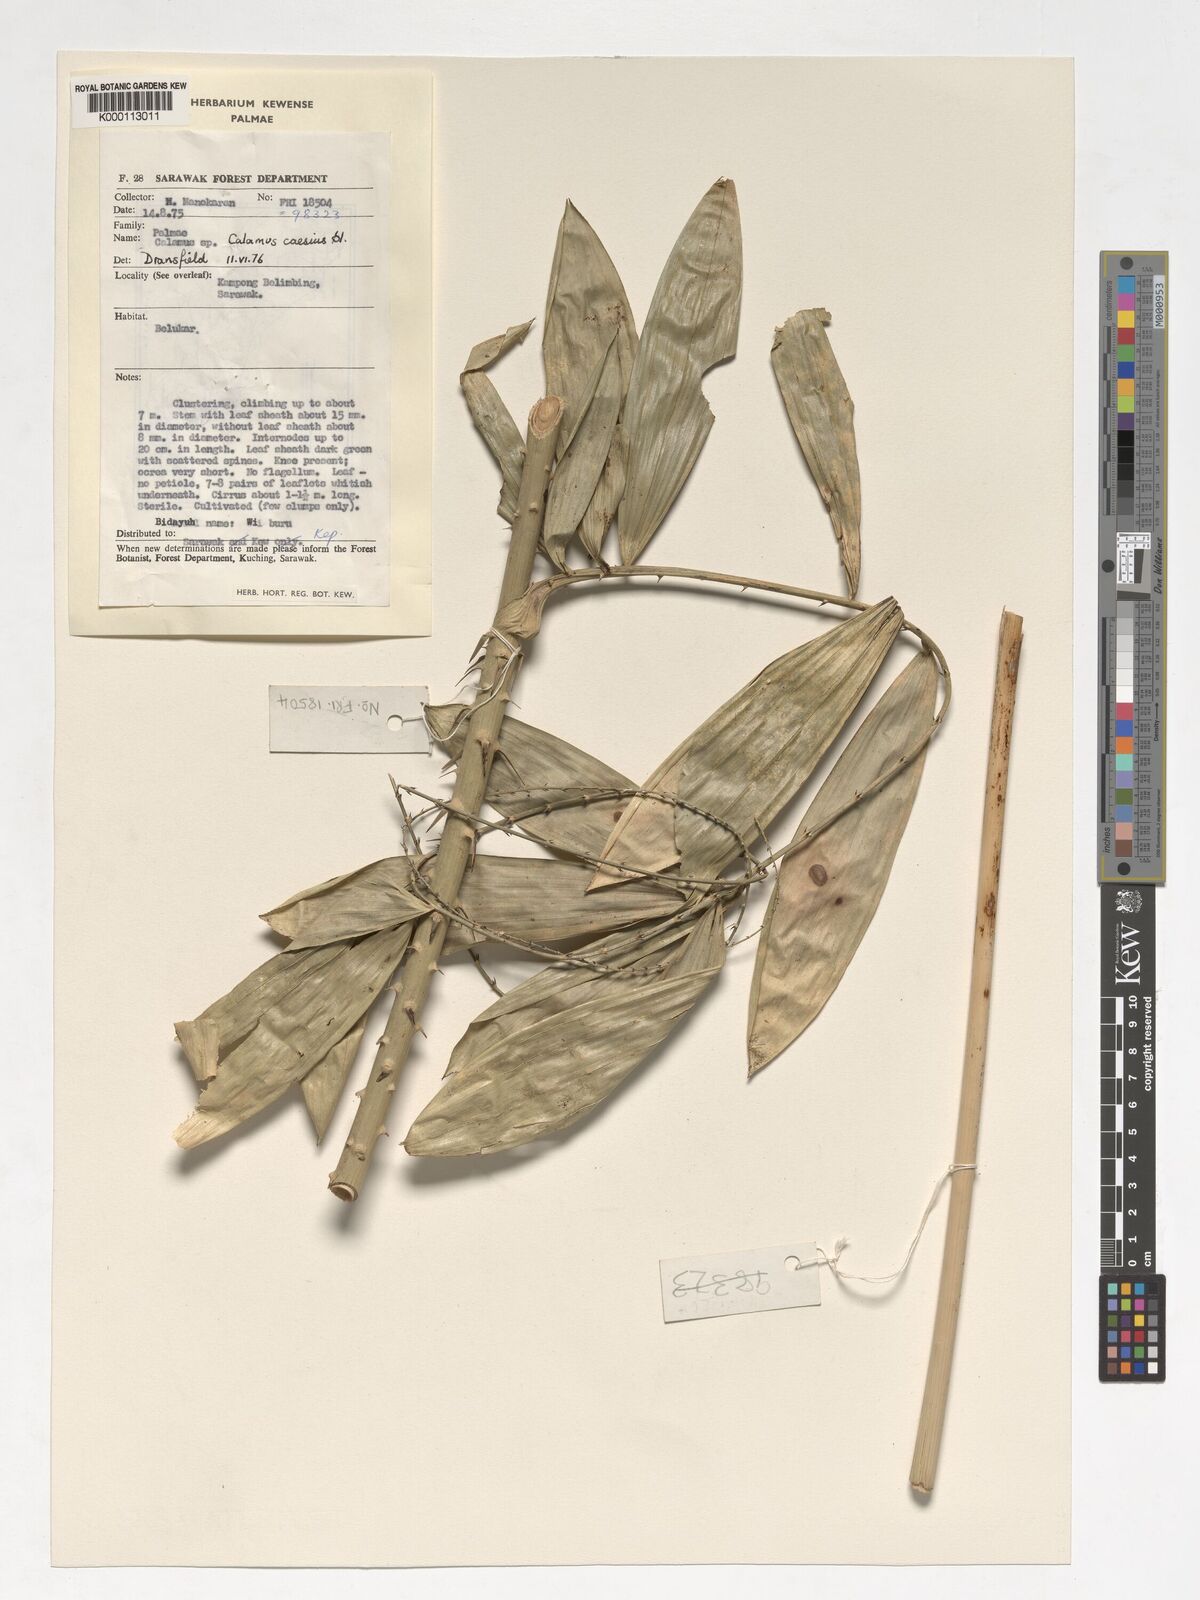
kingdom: Plantae
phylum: Tracheophyta
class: Liliopsida
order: Arecales
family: Arecaceae
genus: Calamus
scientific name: Calamus caesius
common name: Rattan palm
